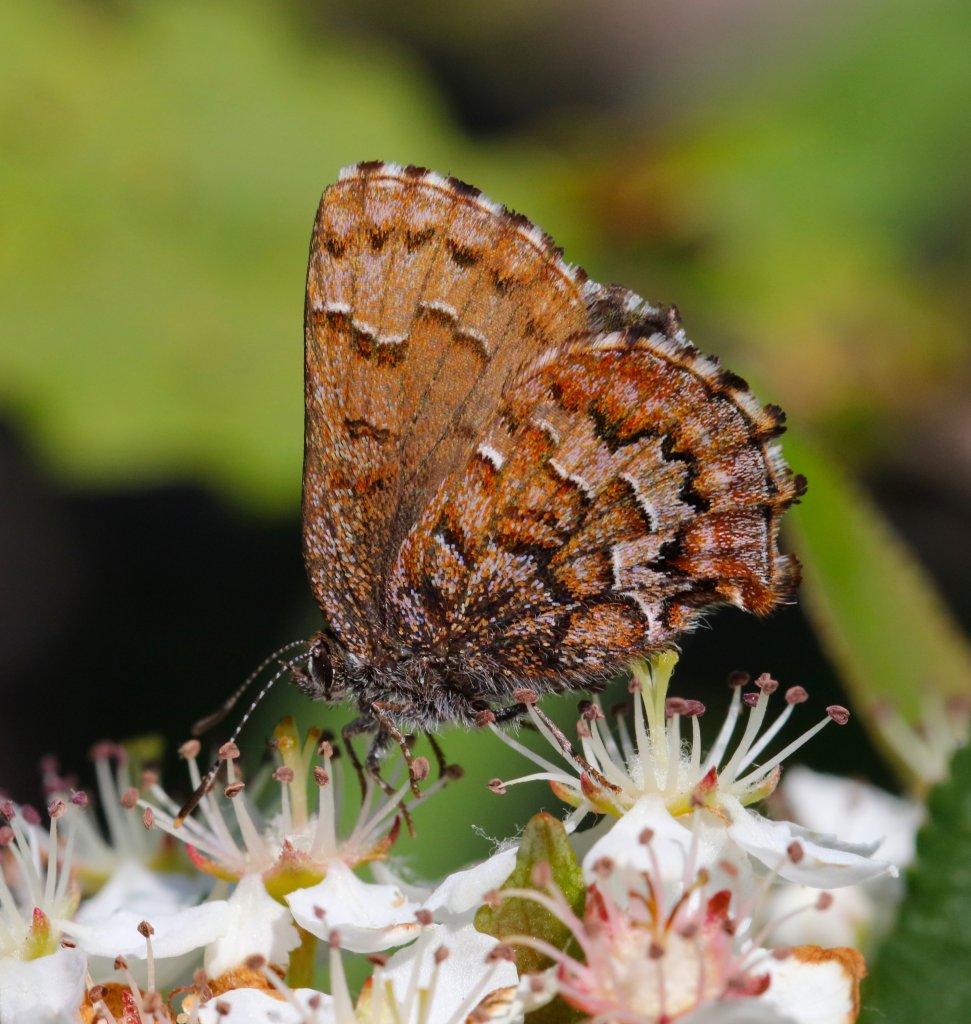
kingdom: Animalia
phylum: Arthropoda
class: Insecta
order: Lepidoptera
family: Lycaenidae
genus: Incisalia
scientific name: Incisalia niphon
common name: Eastern Pine Elfin
